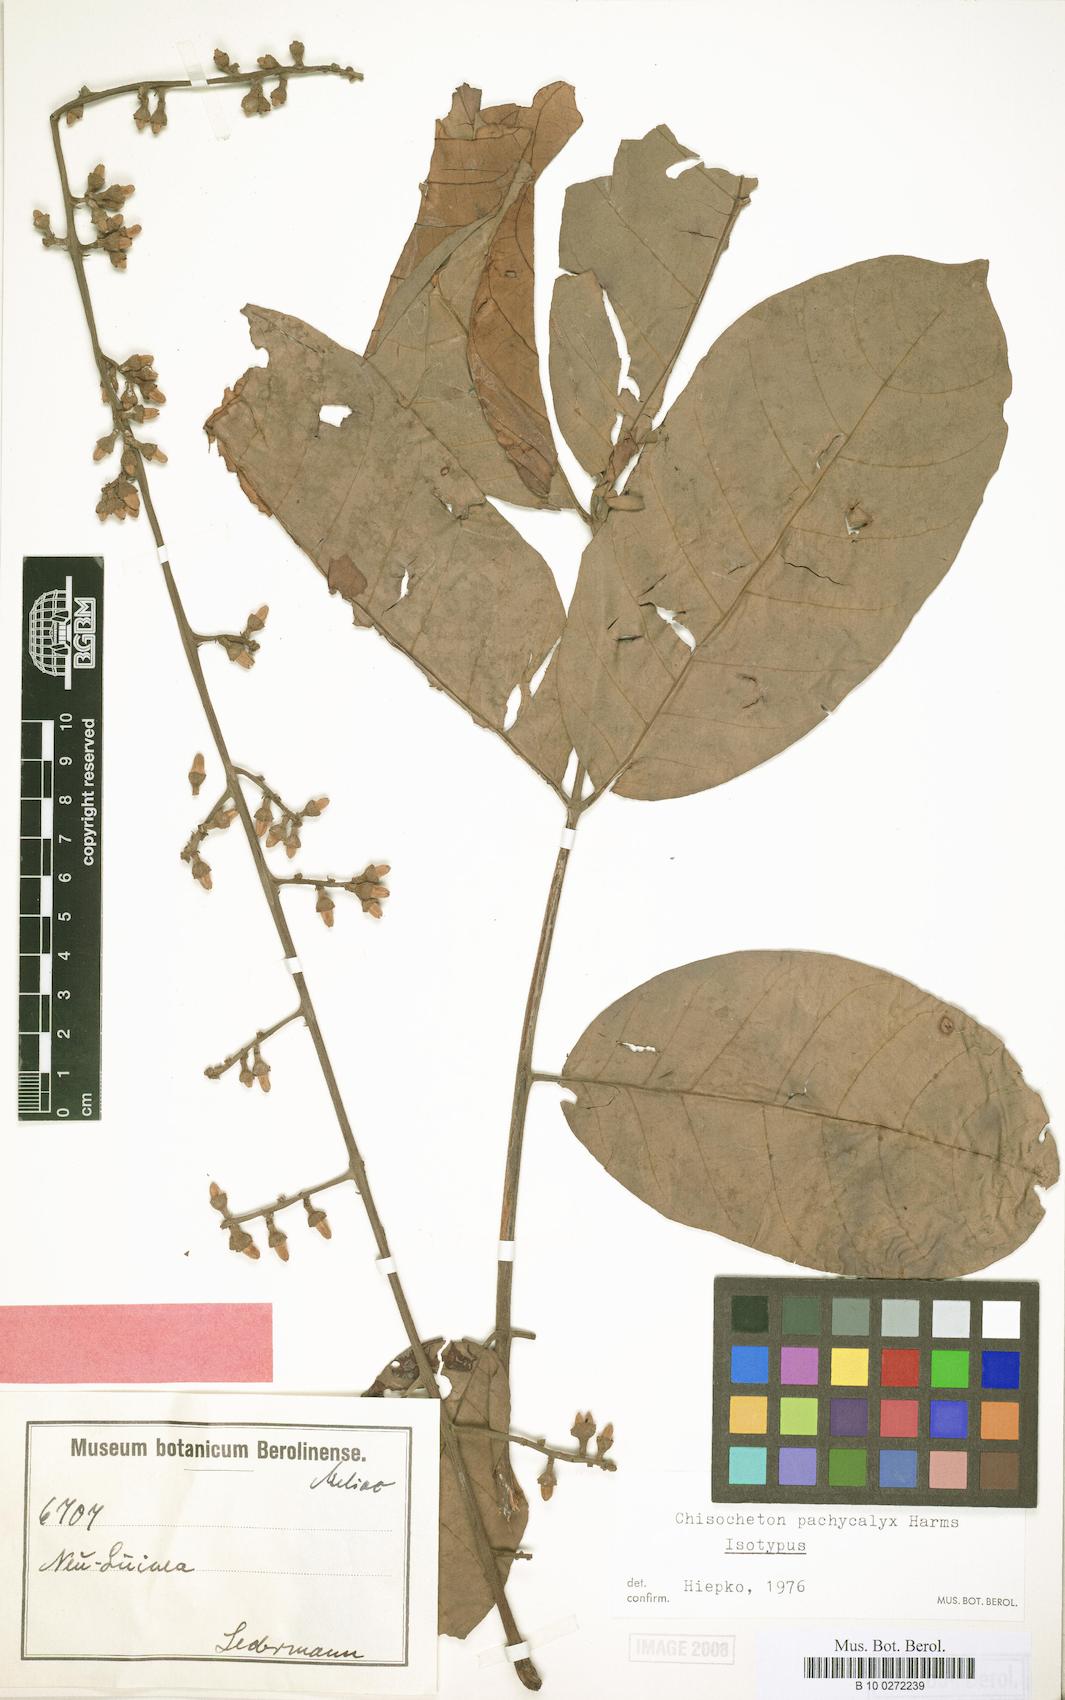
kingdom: Plantae
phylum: Tracheophyta
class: Magnoliopsida
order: Sapindales
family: Meliaceae
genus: Chisocheton
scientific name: Chisocheton ceramicus
